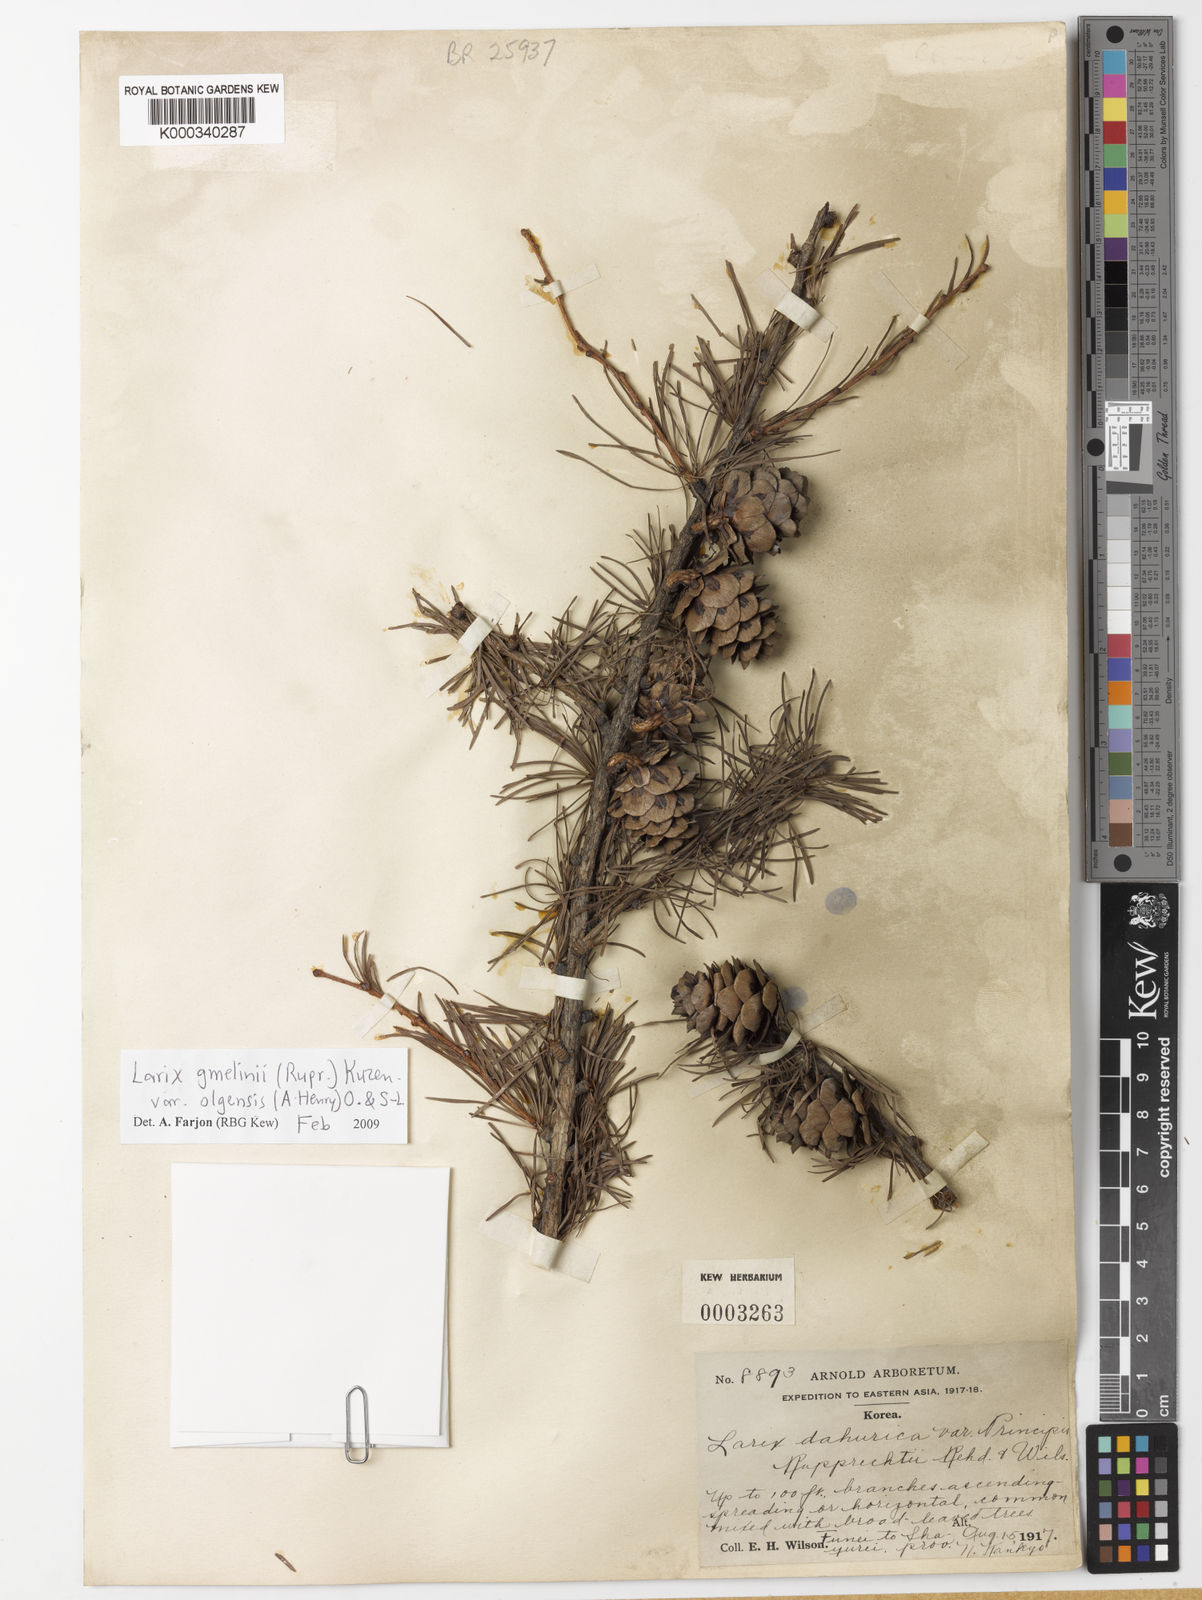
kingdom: Plantae
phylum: Tracheophyta
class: Pinopsida
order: Pinales
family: Pinaceae
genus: Larix
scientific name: Larix gmelinii
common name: Dahurian larch
